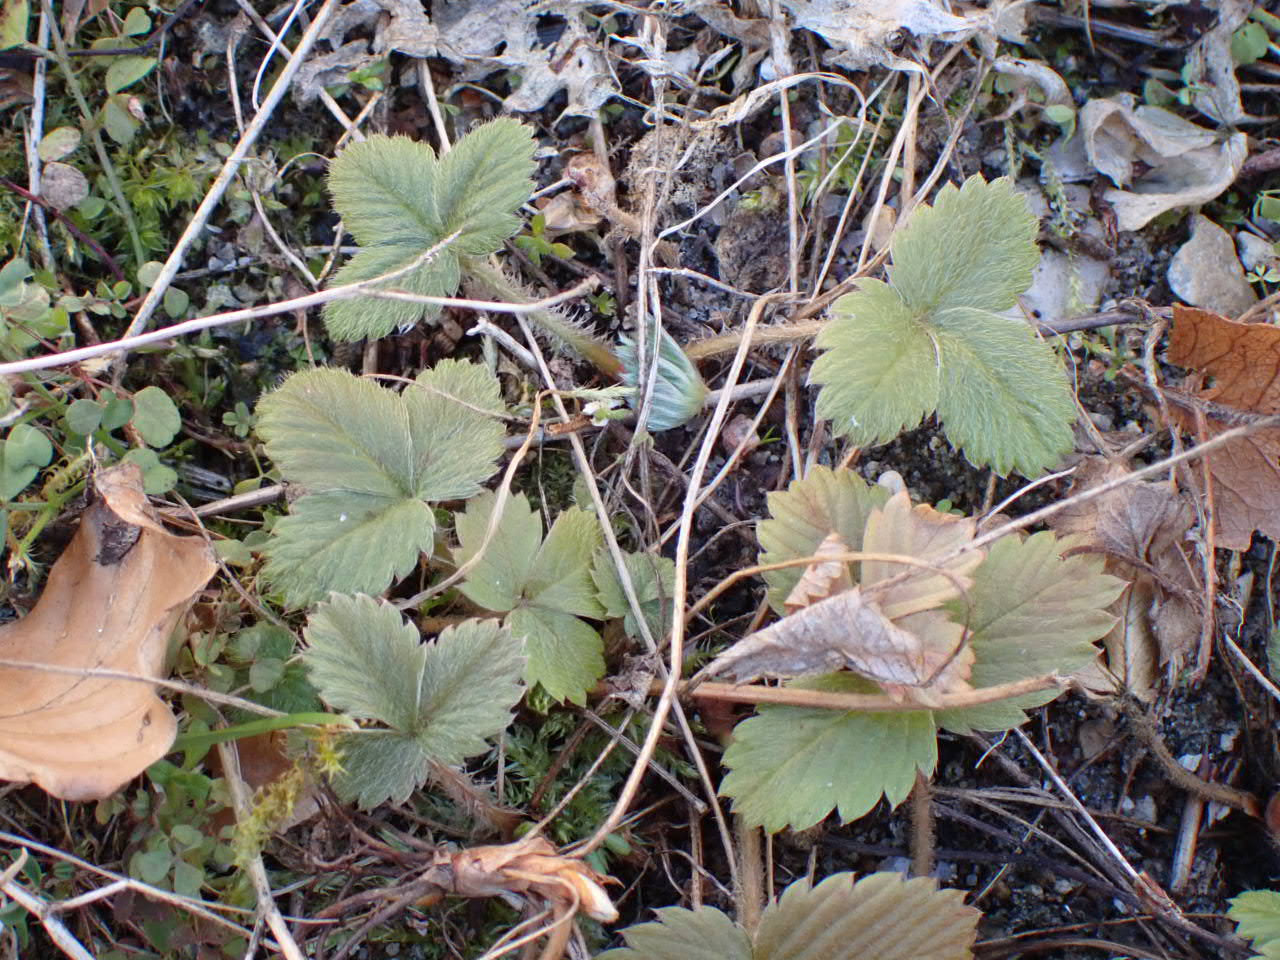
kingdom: Plantae
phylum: Tracheophyta
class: Magnoliopsida
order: Rosales
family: Rosaceae
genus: Fragaria
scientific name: Fragaria vesca
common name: Skov-jordbær
